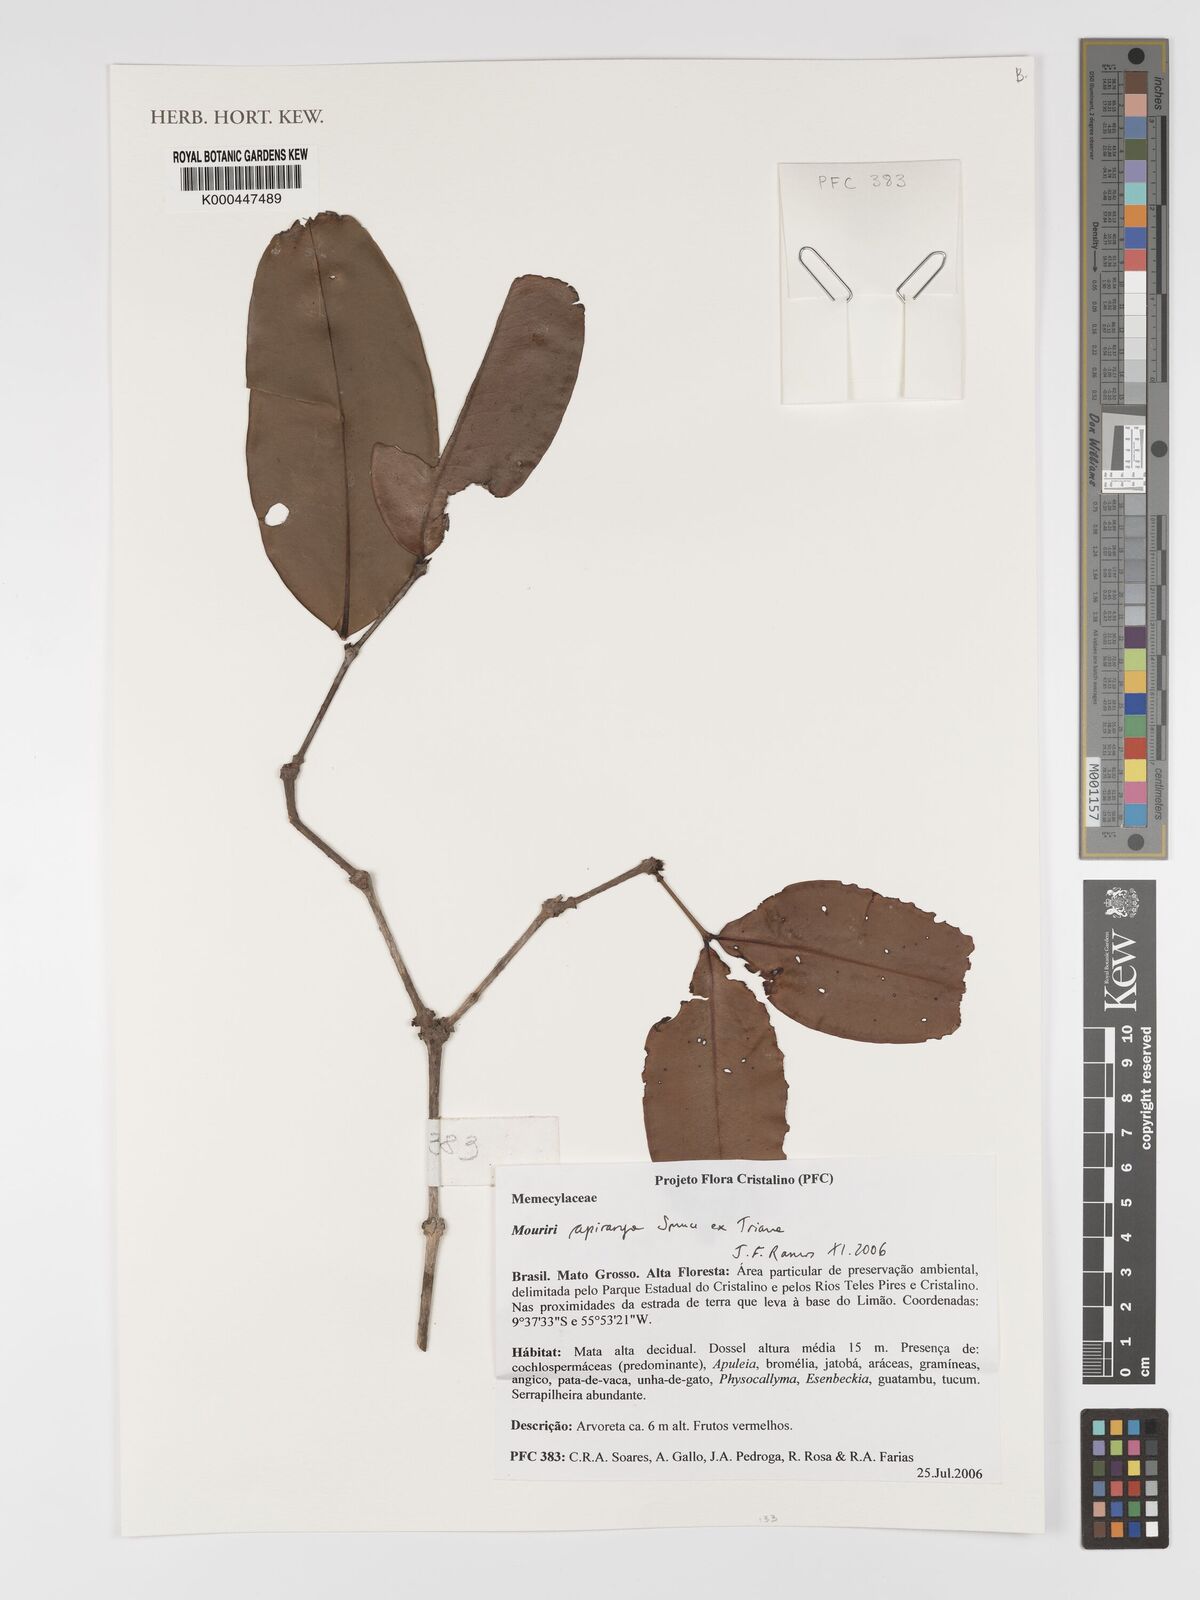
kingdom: Plantae
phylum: Tracheophyta
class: Magnoliopsida
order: Myrtales
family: Melastomataceae
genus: Mouriri
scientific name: Mouriri apiranga
